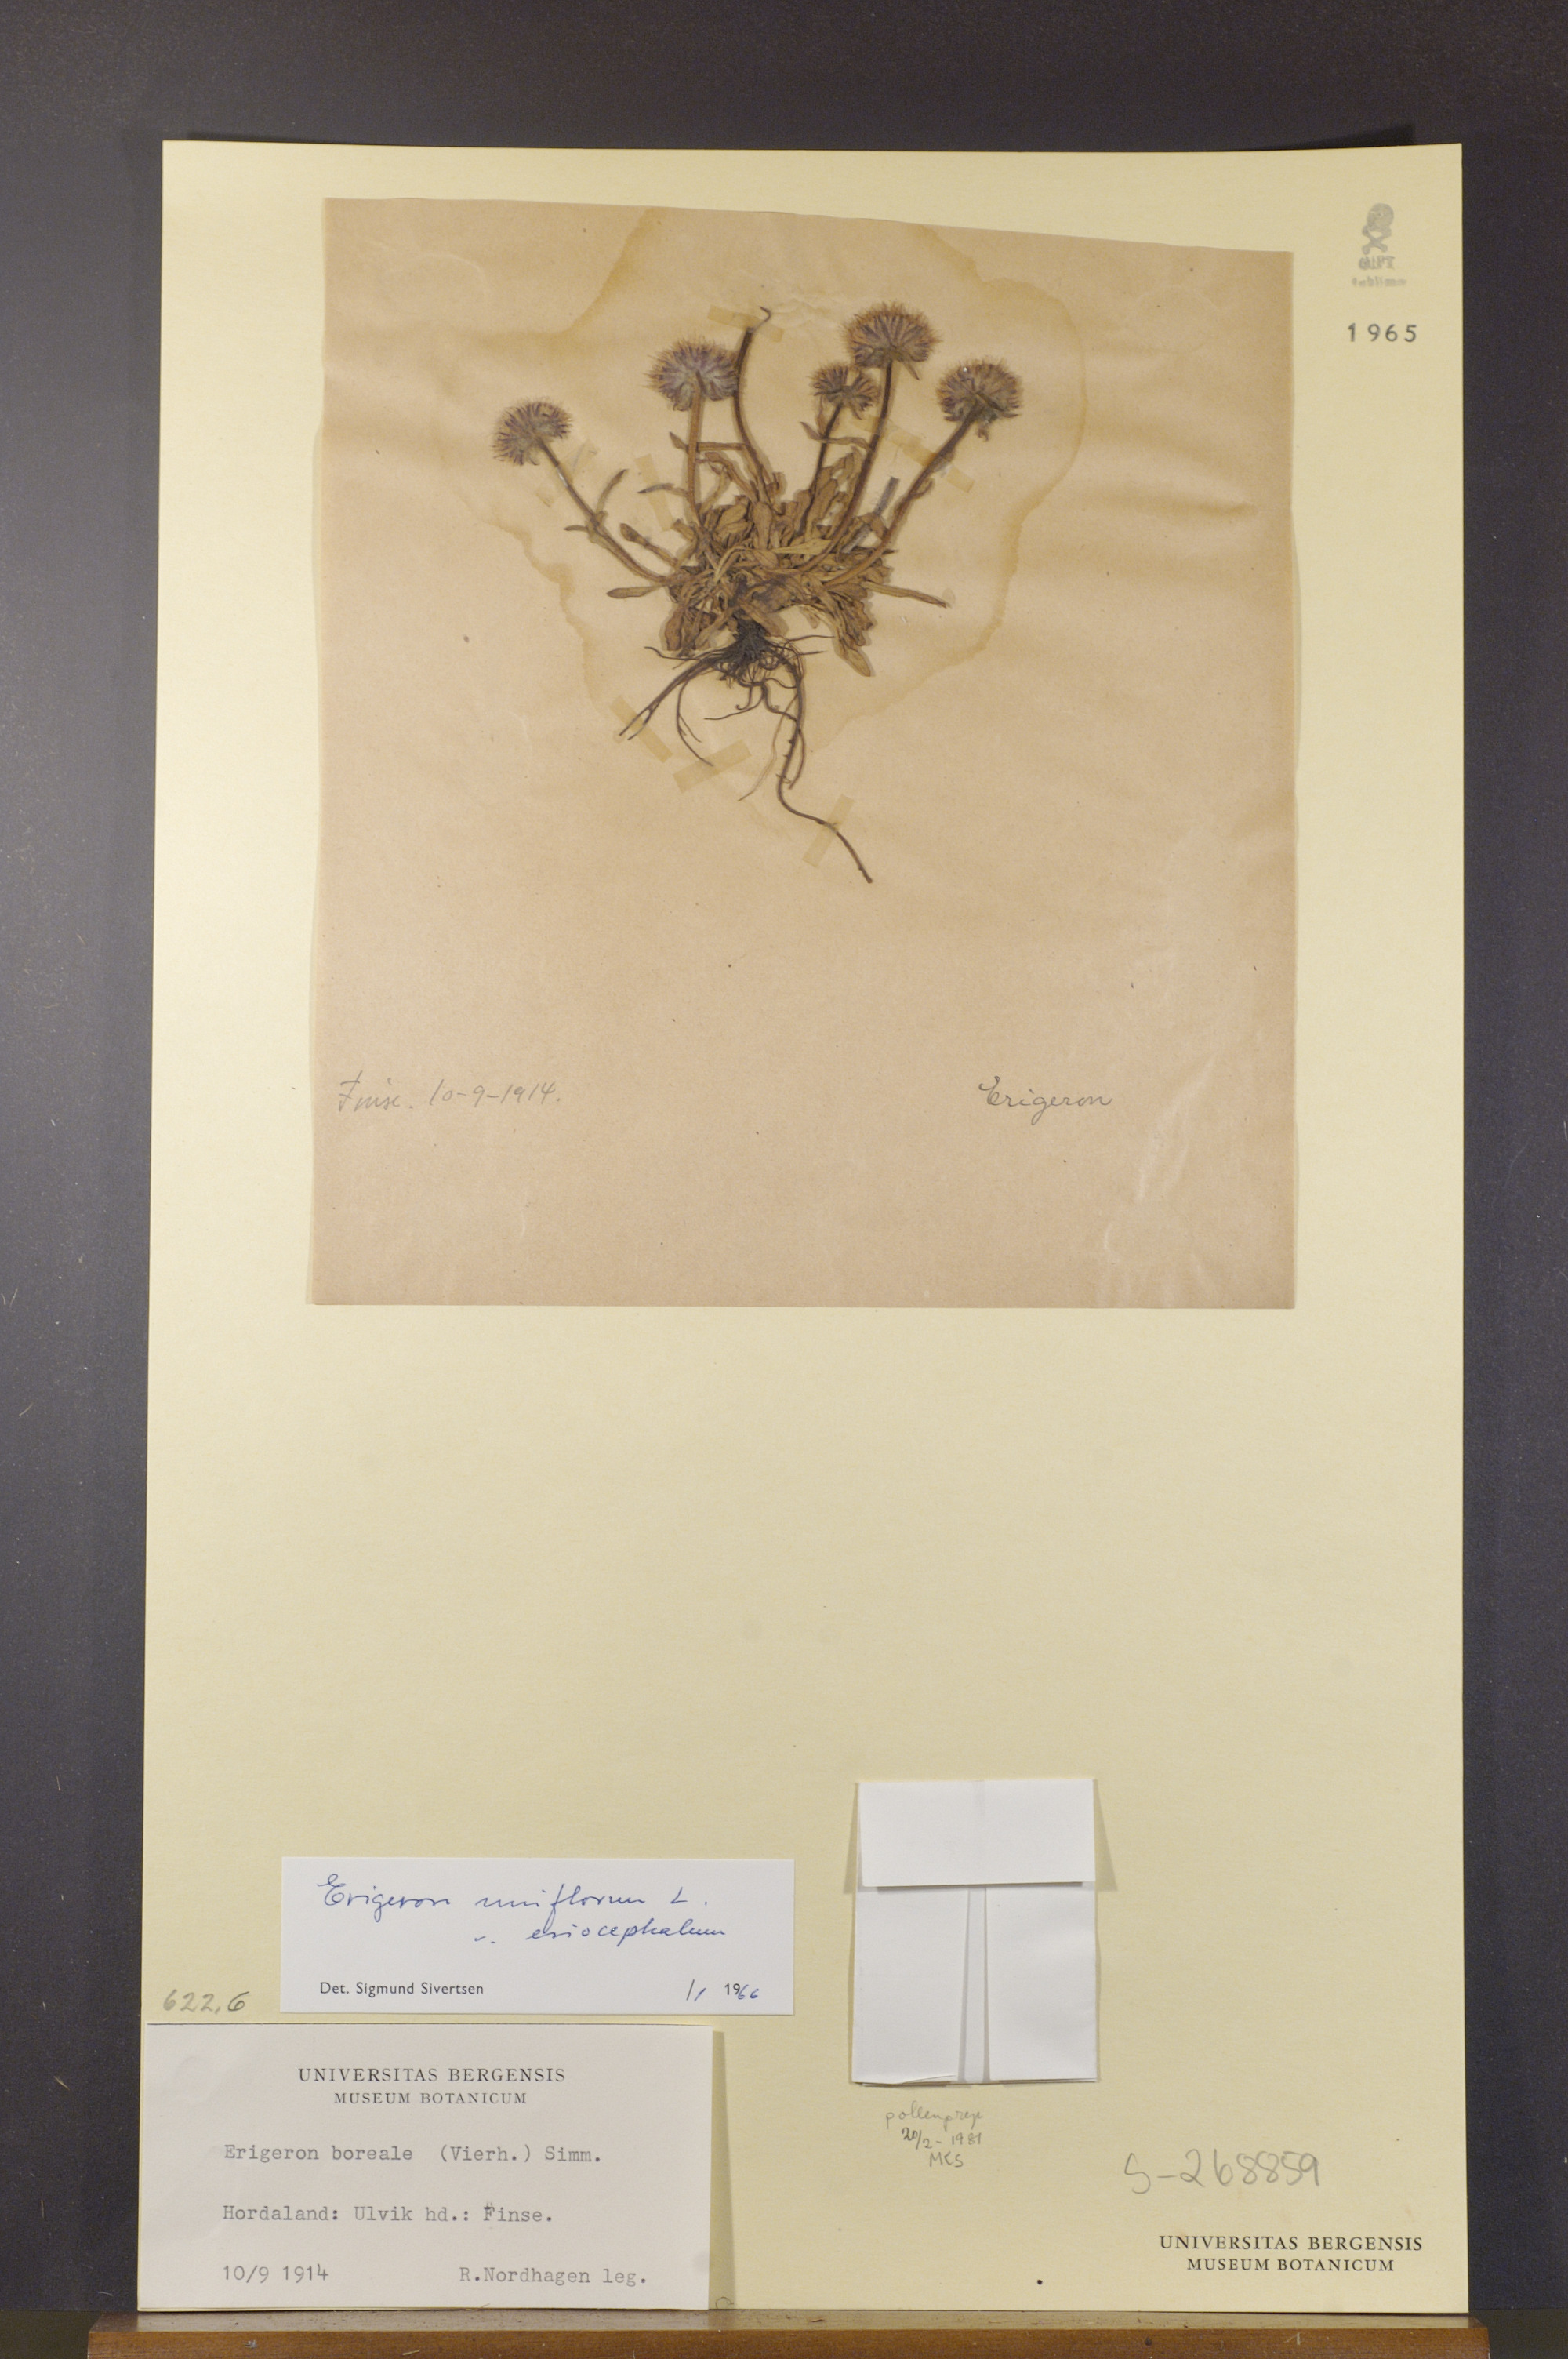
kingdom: Plantae
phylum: Tracheophyta
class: Magnoliopsida
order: Asterales
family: Asteraceae
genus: Erigeron
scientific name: Erigeron uniflorus
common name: Northern daisy
